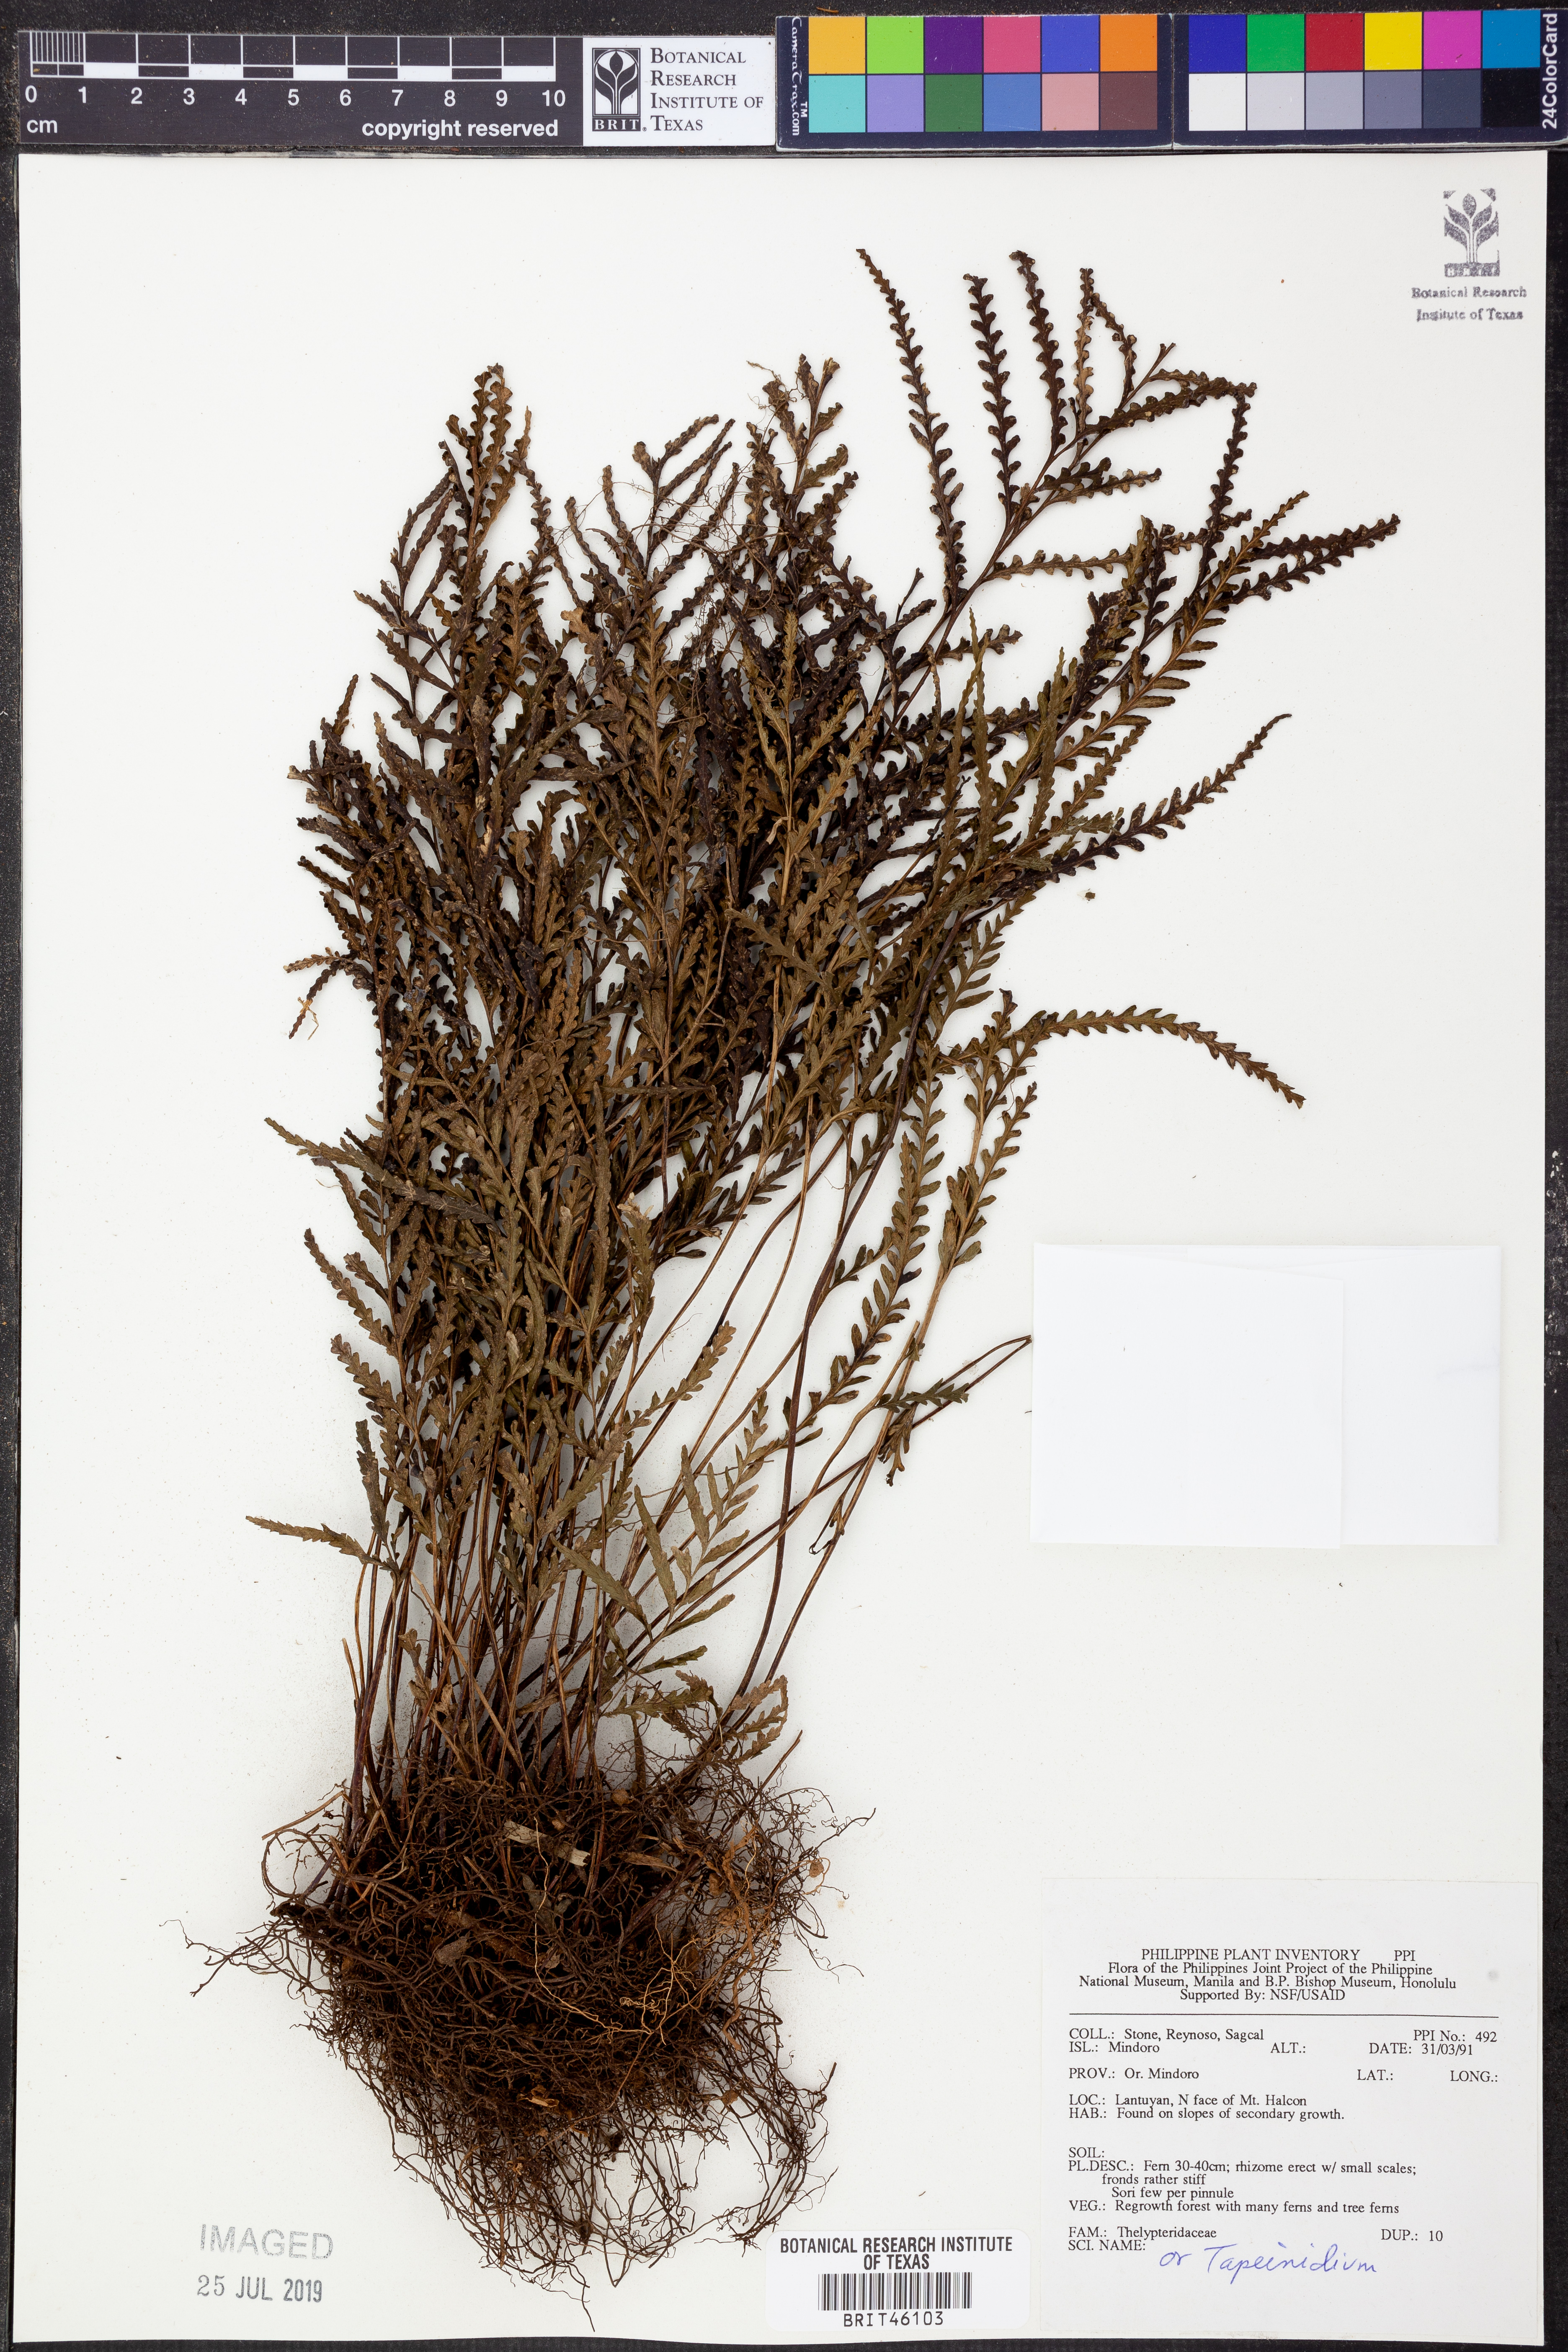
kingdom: Plantae
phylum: Tracheophyta
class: Polypodiopsida
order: Polypodiales
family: Thelypteridaceae
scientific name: Thelypteridaceae
